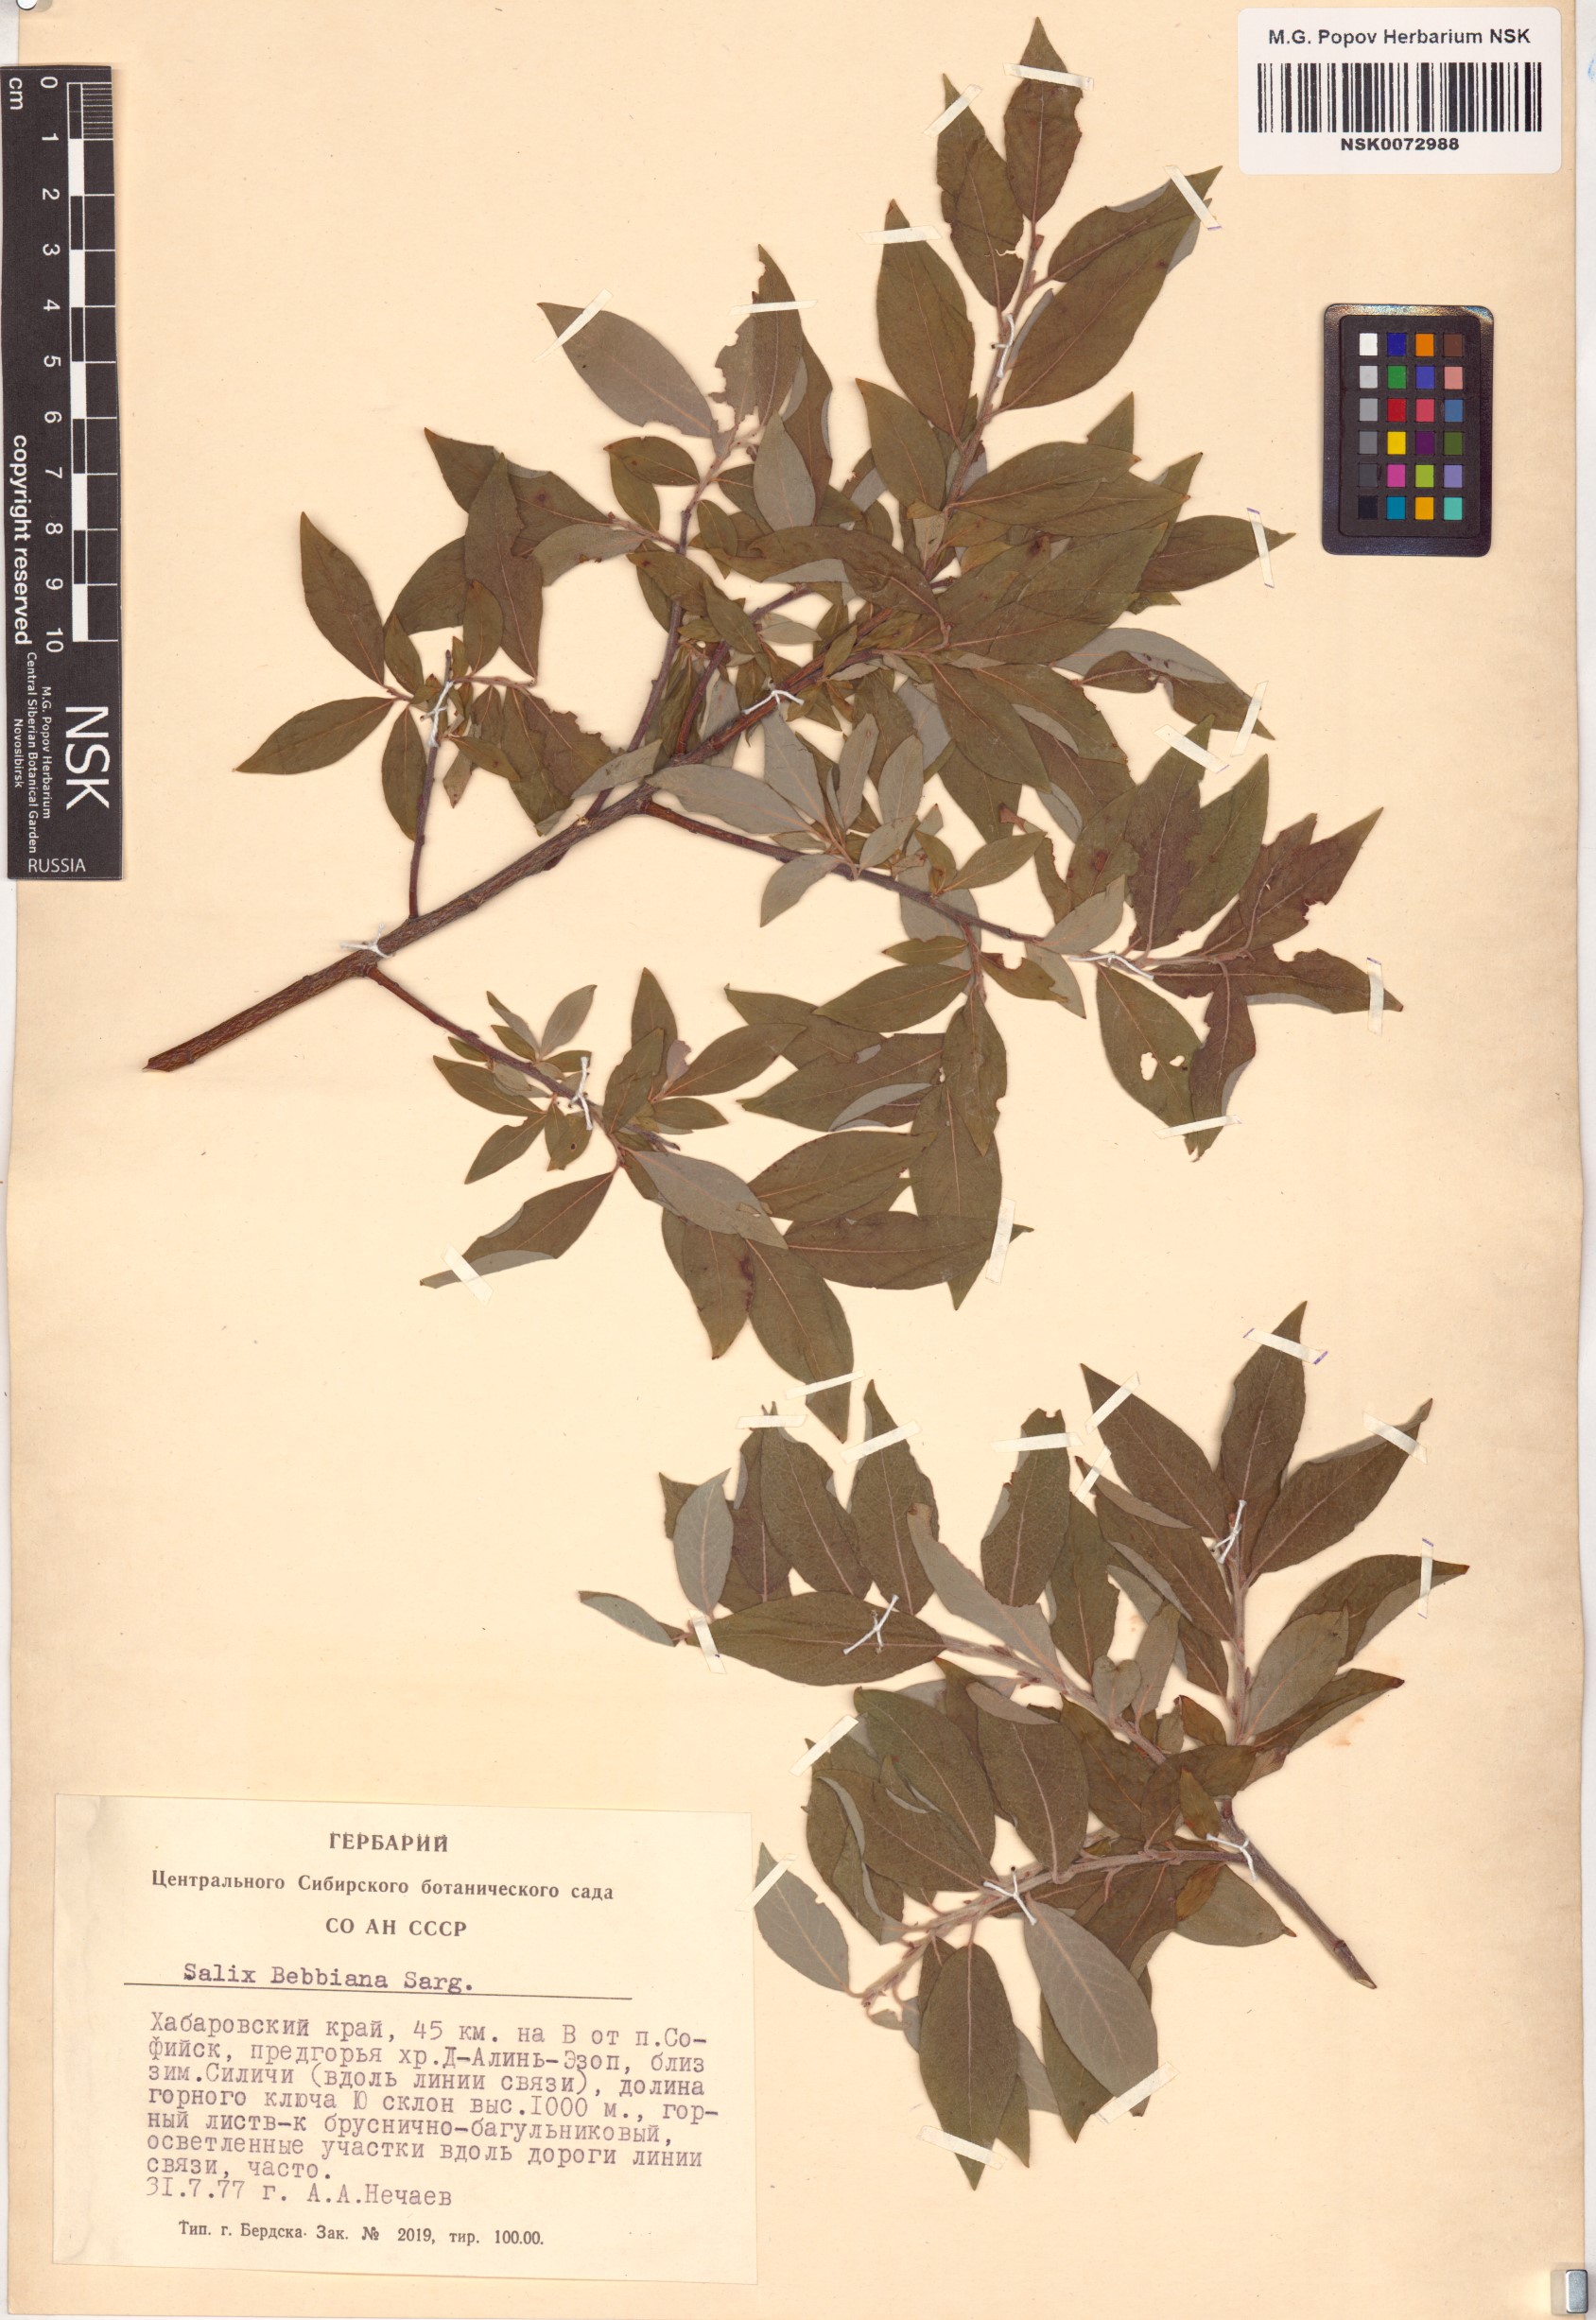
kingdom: Plantae
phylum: Tracheophyta
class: Magnoliopsida
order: Malpighiales
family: Salicaceae
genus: Salix
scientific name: Salix bebbiana
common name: Bebb's willow
